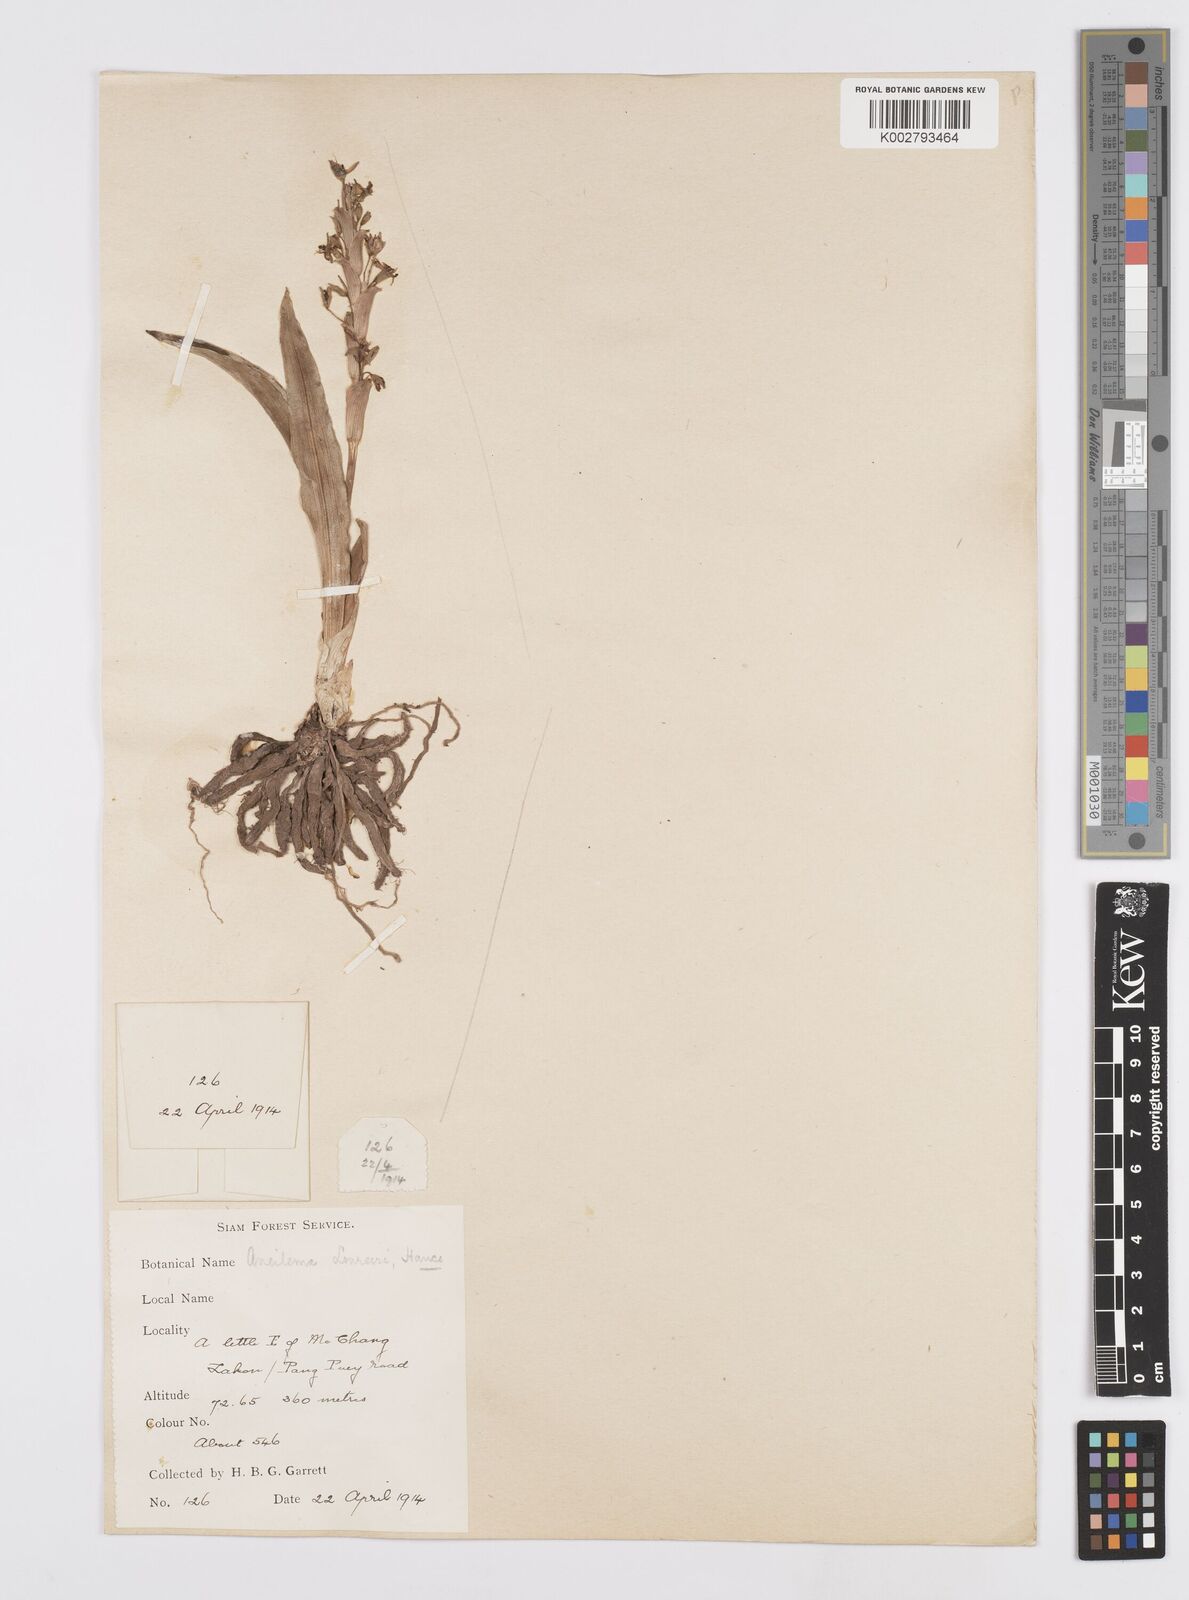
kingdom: Plantae
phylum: Tracheophyta
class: Liliopsida
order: Commelinales
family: Commelinaceae
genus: Murdannia
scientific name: Murdannia edulis
